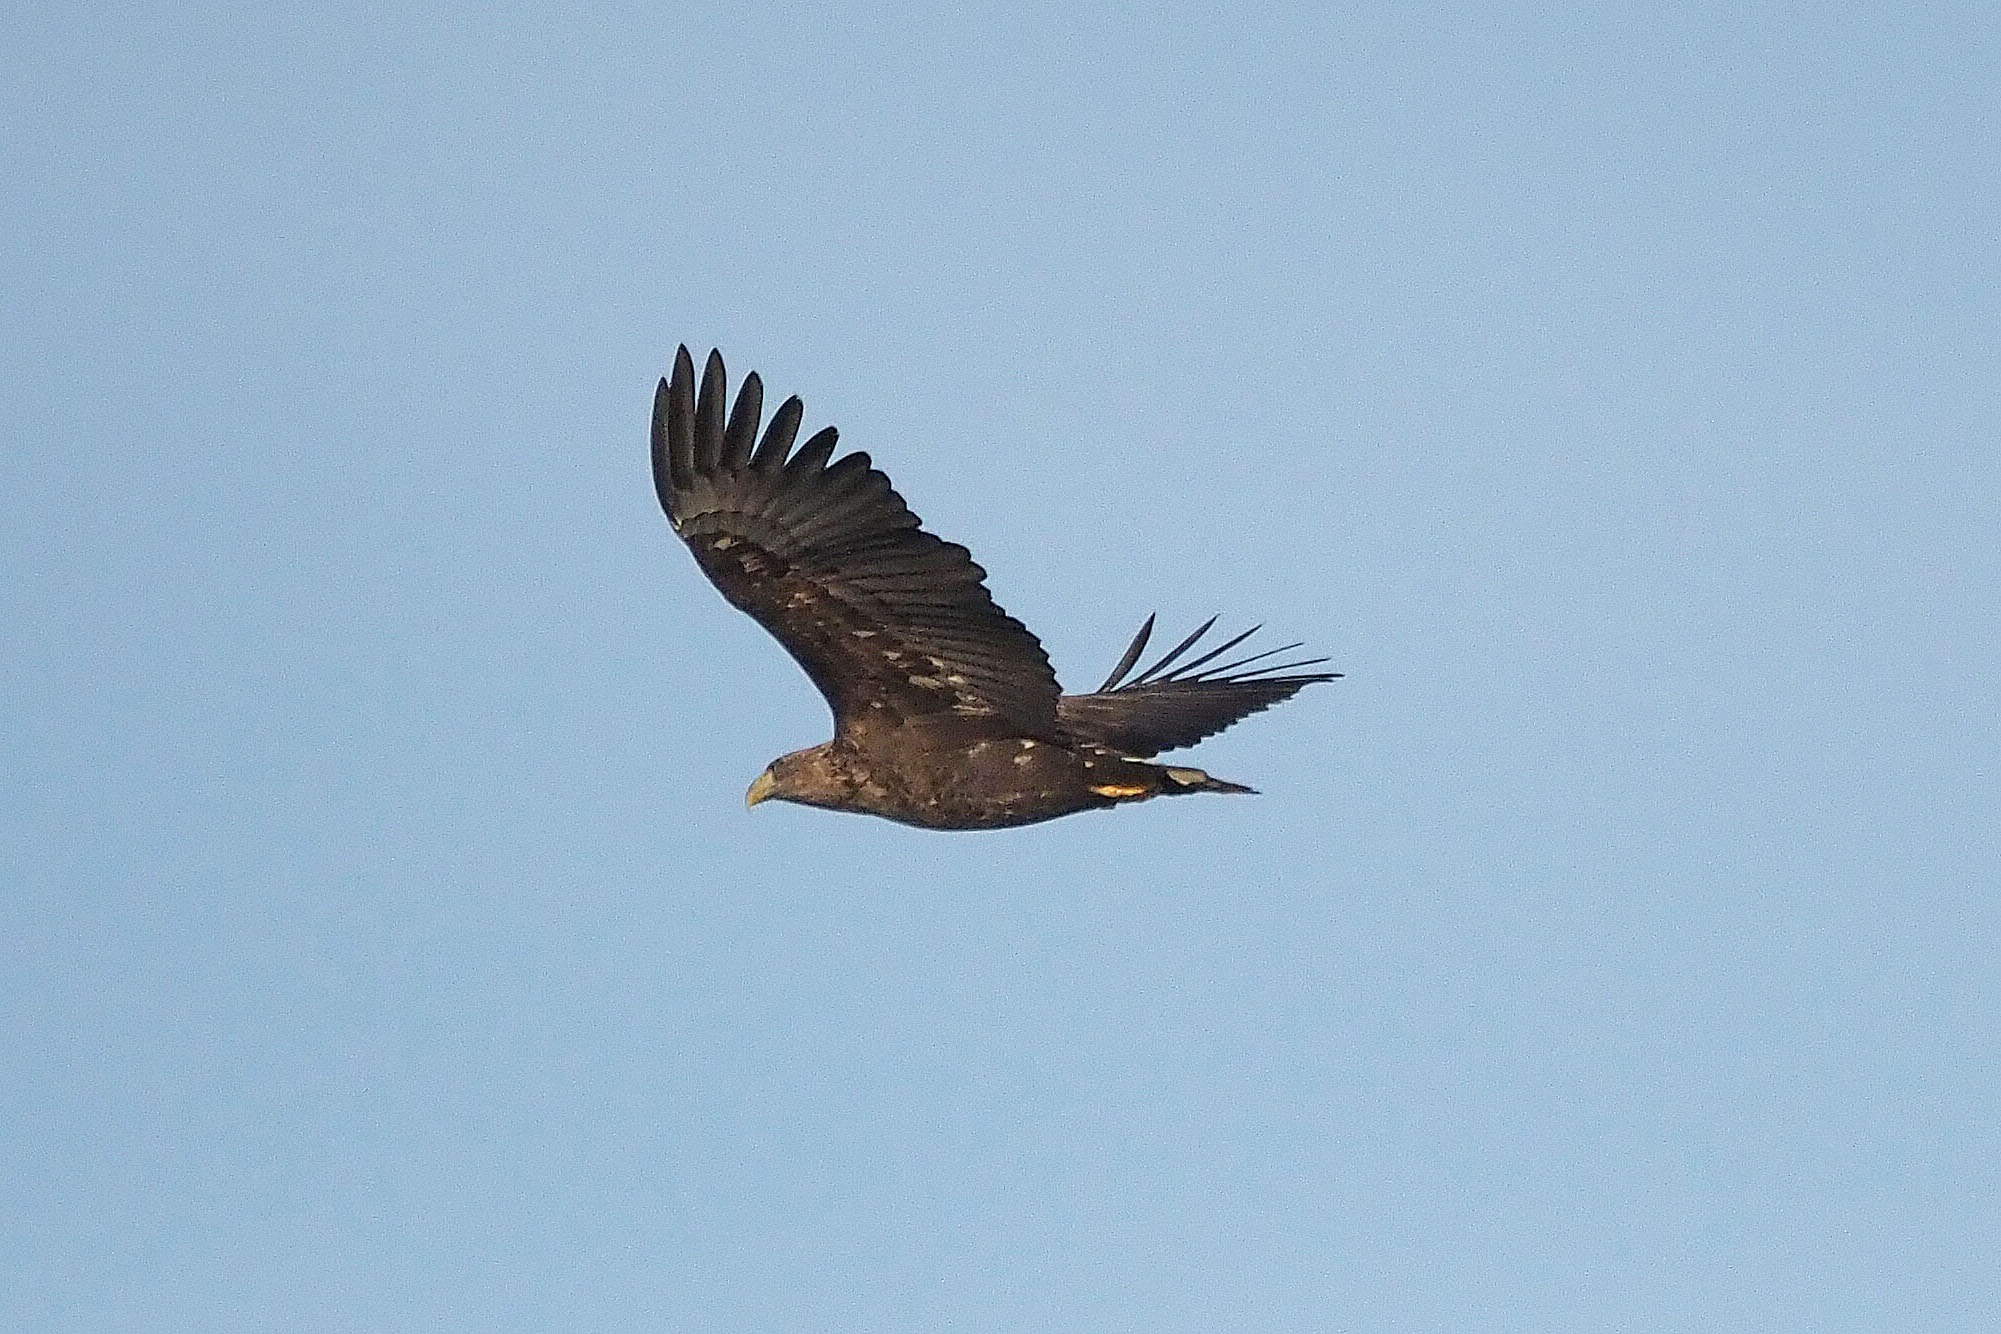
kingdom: Animalia
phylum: Chordata
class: Aves
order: Accipitriformes
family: Accipitridae
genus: Haliaeetus
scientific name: Haliaeetus albicilla
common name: Havørn
